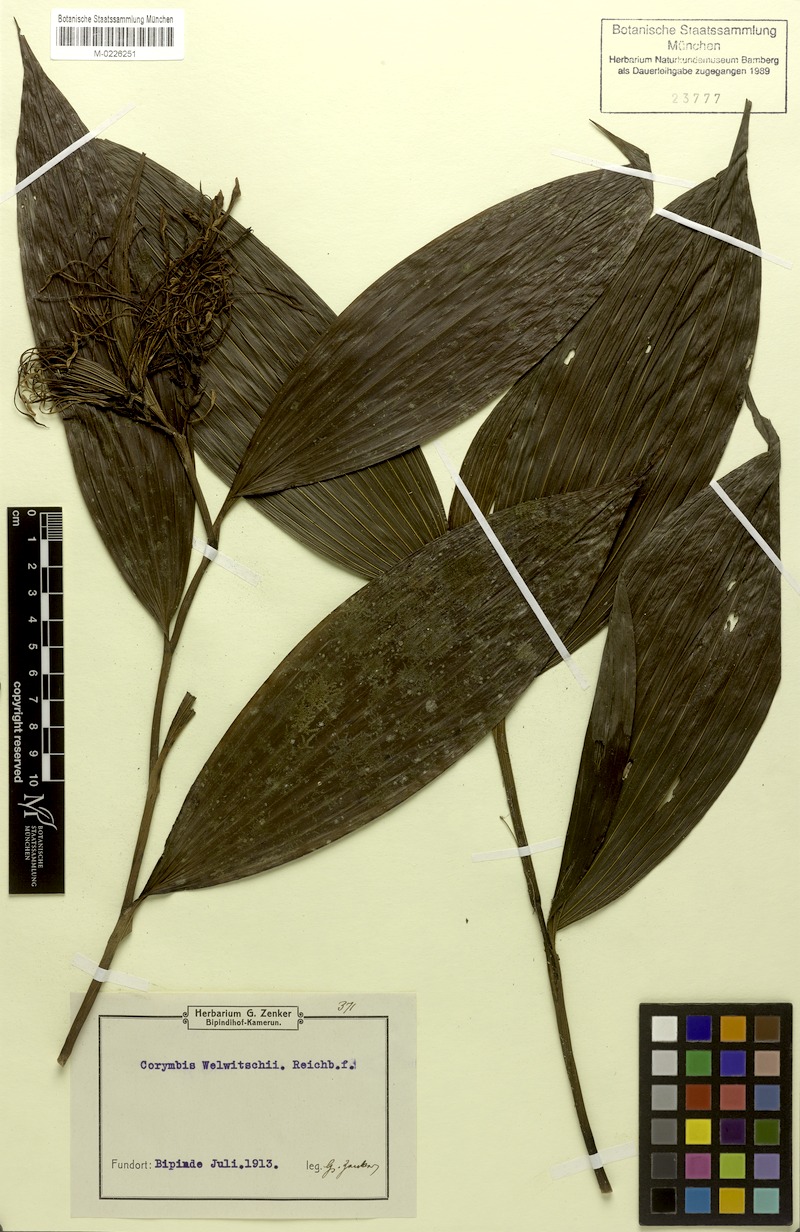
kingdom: Plantae
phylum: Tracheophyta
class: Liliopsida
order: Asparagales
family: Orchidaceae
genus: Corymborkis
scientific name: Corymborkis corymbis
